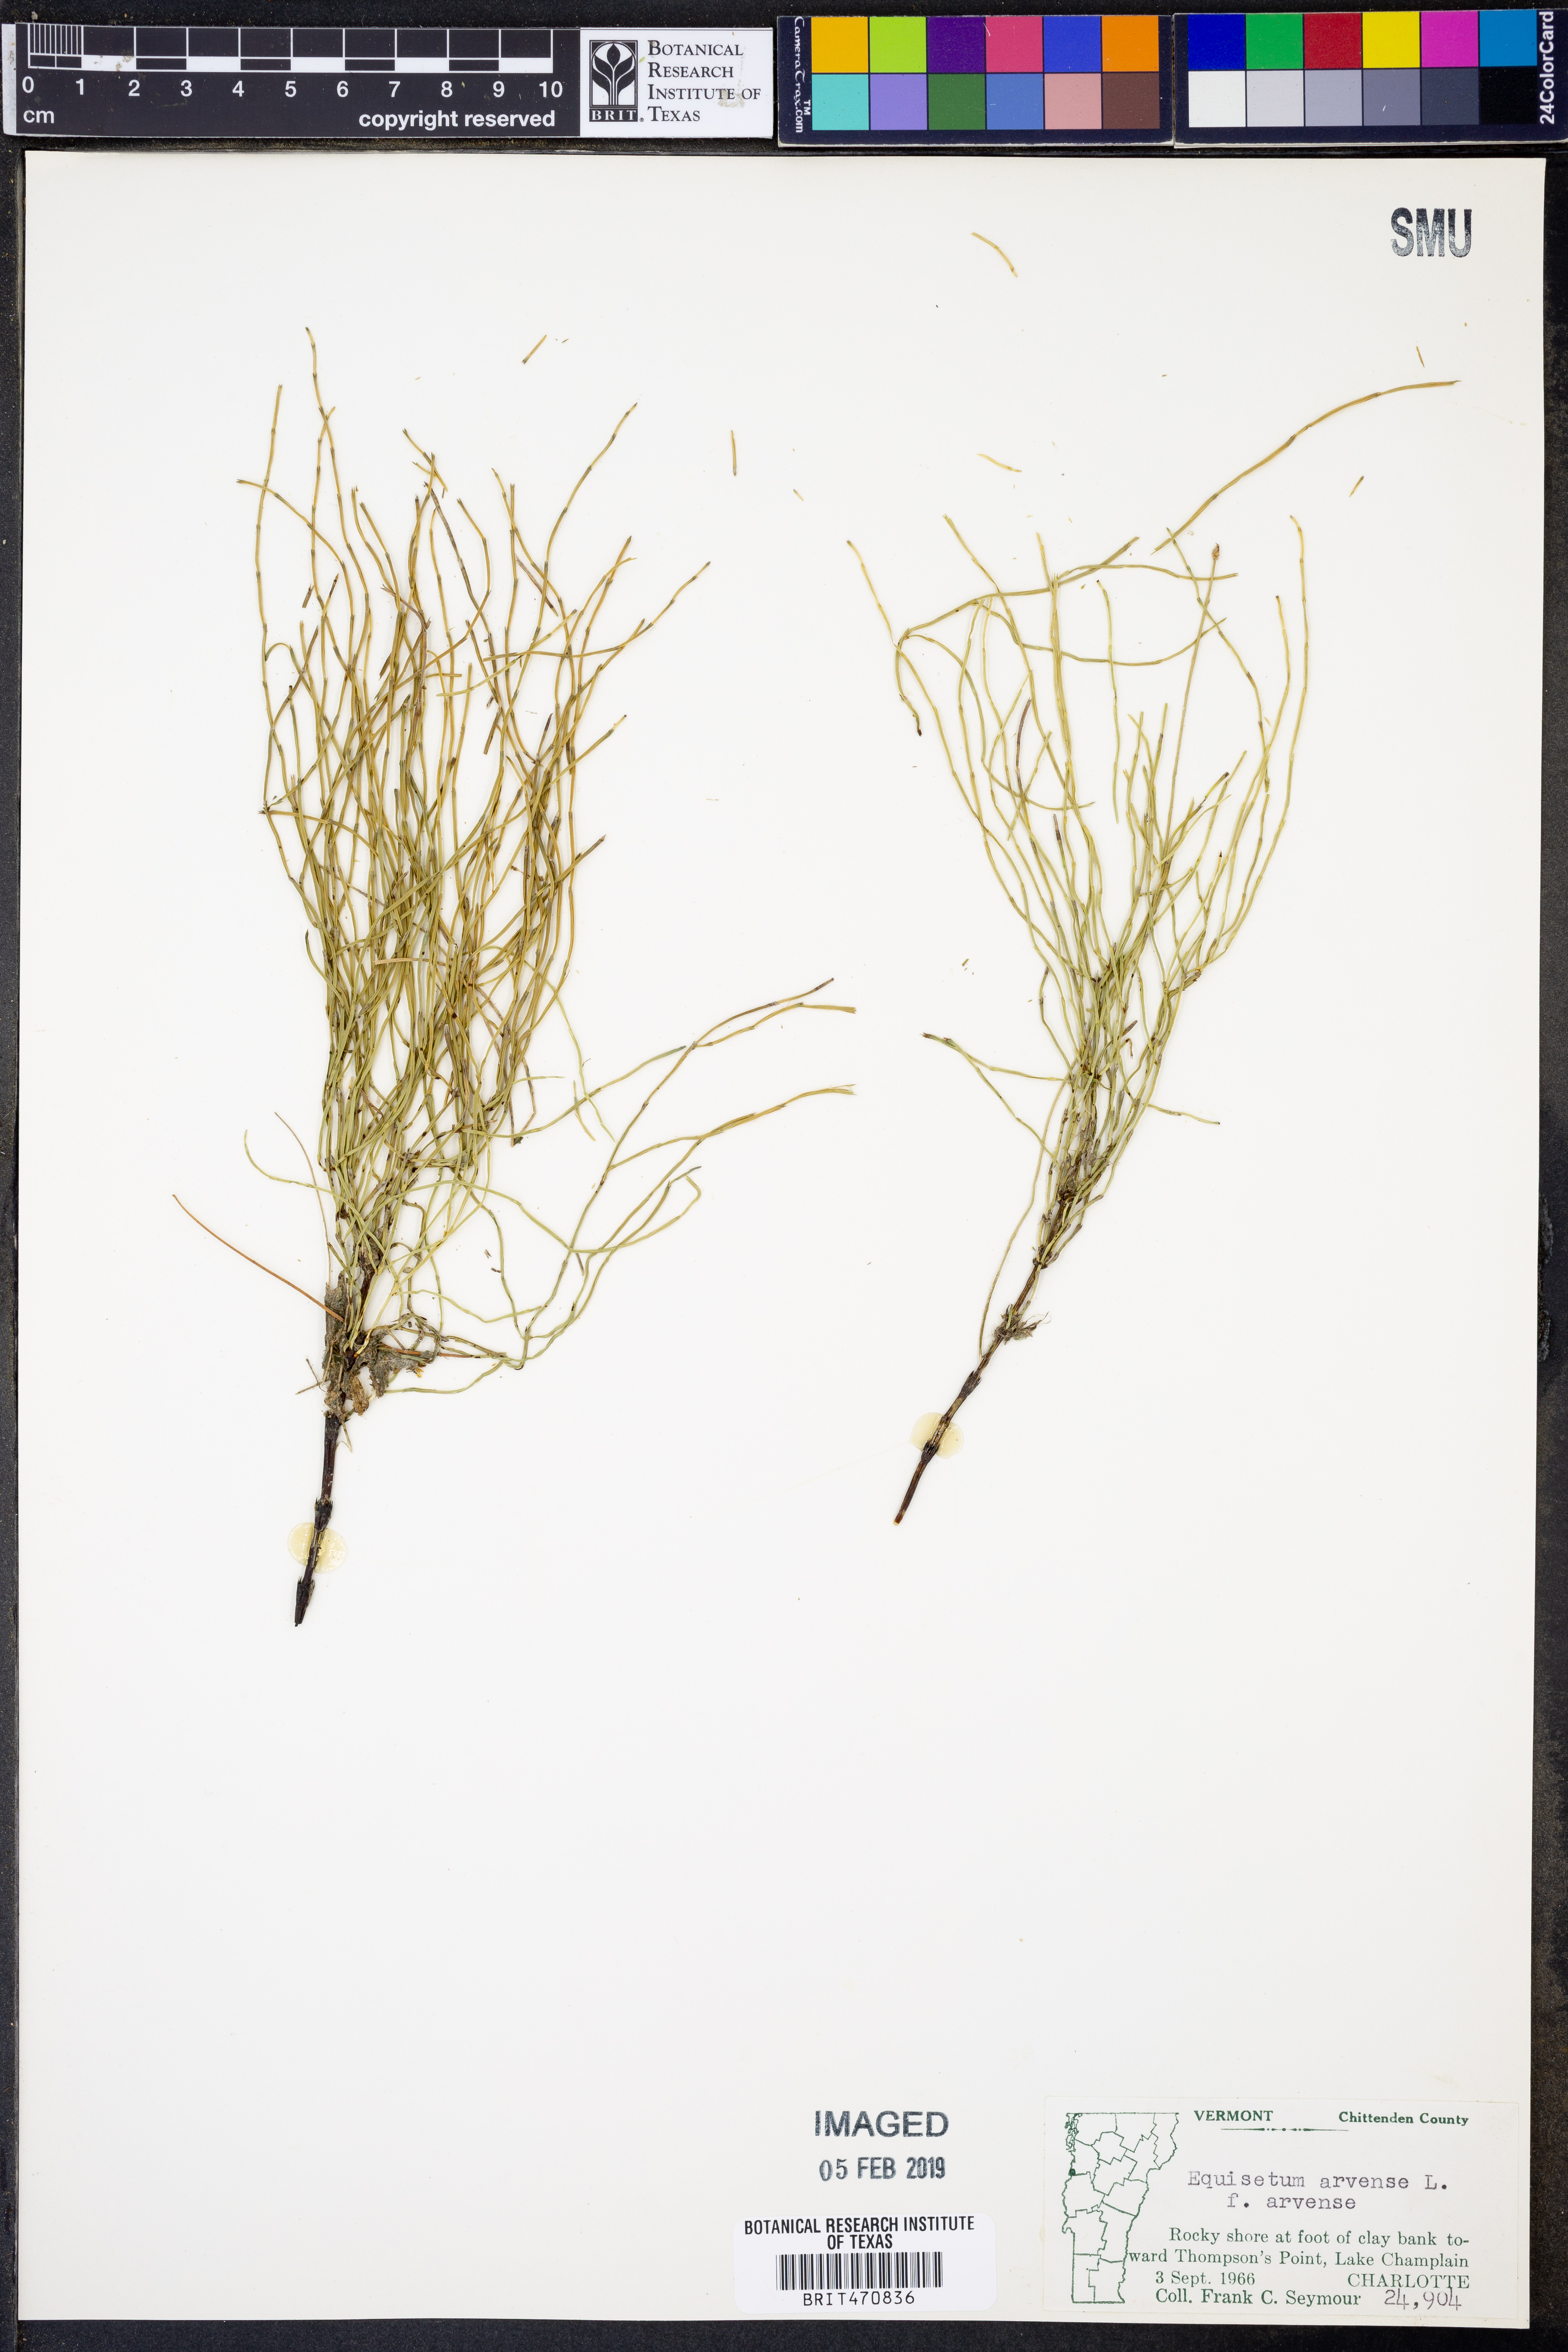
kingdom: Plantae
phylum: Tracheophyta
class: Polypodiopsida
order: Equisetales
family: Equisetaceae
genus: Equisetum
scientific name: Equisetum arvense
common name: Field horsetail
